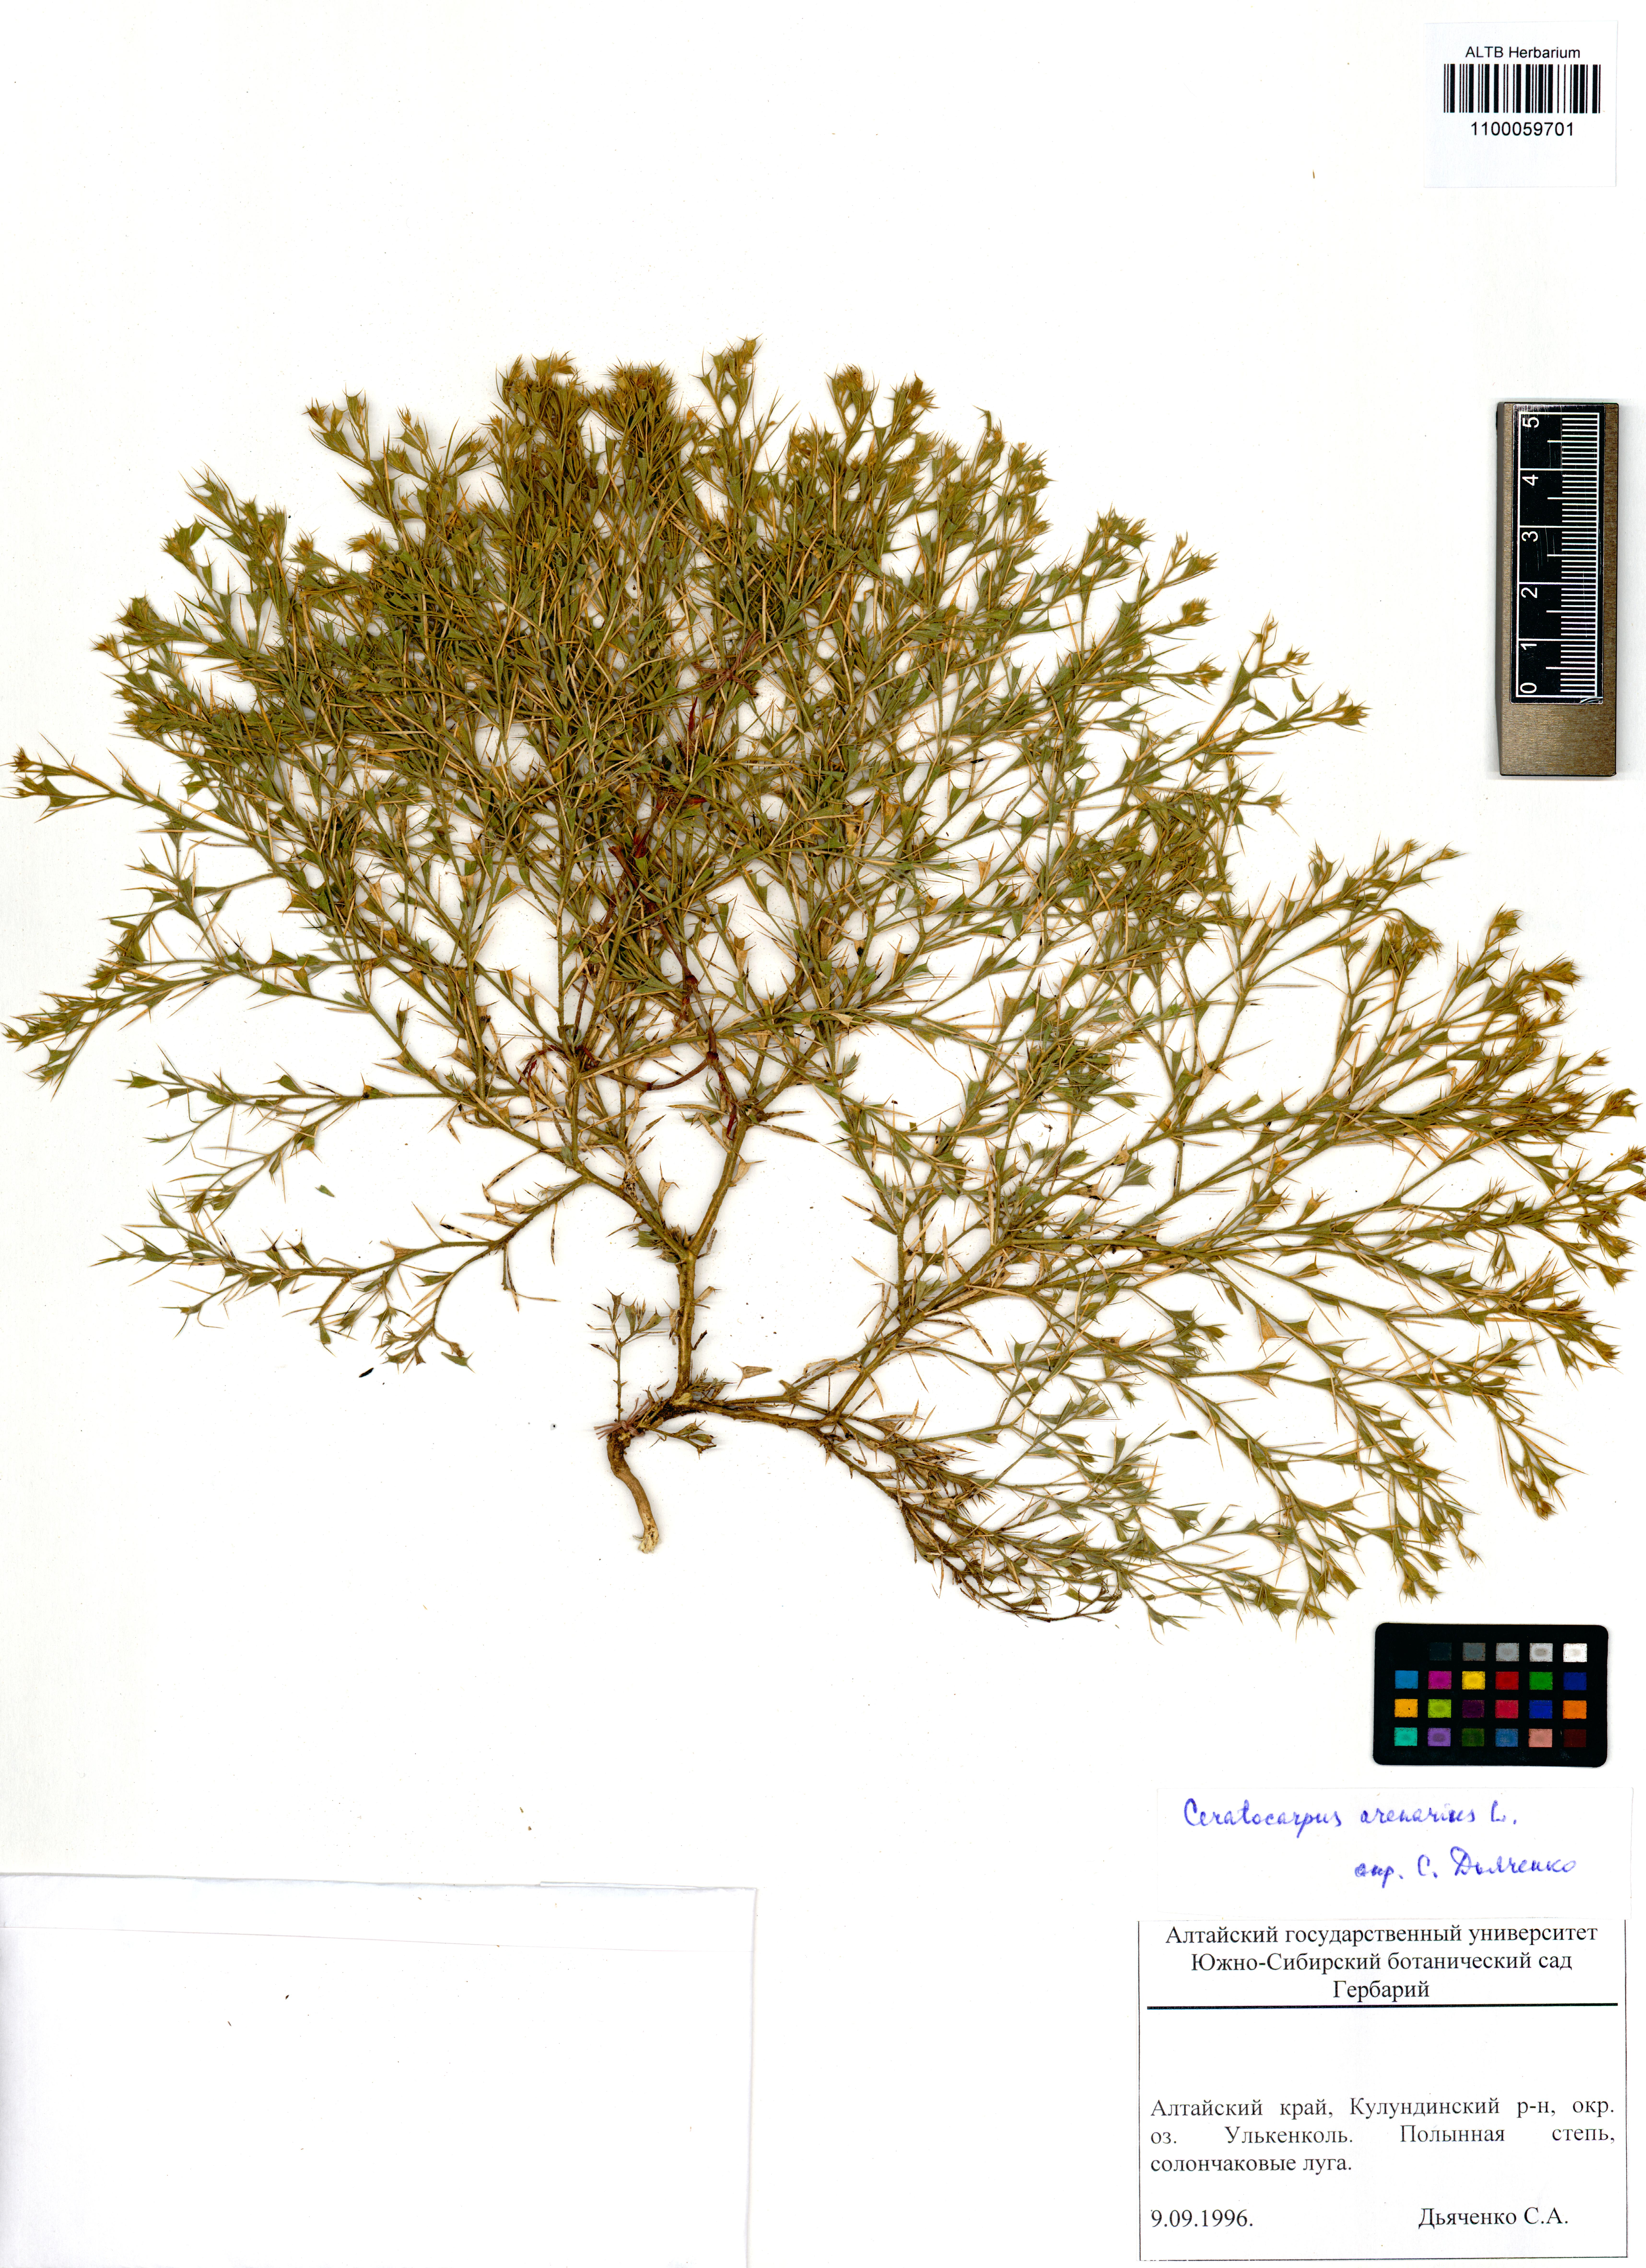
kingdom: Plantae
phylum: Tracheophyta
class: Magnoliopsida
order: Caryophyllales
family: Amaranthaceae
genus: Ceratocarpus
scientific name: Ceratocarpus arenarius
